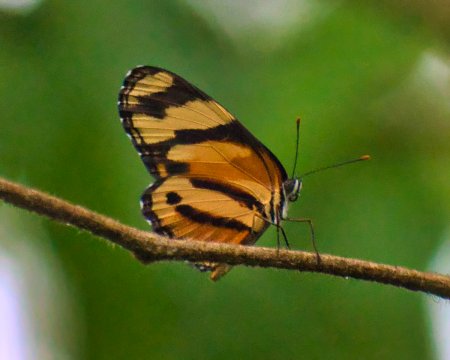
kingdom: Animalia
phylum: Arthropoda
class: Insecta
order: Lepidoptera
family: Nymphalidae
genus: Eresia
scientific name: Eresia eunice
